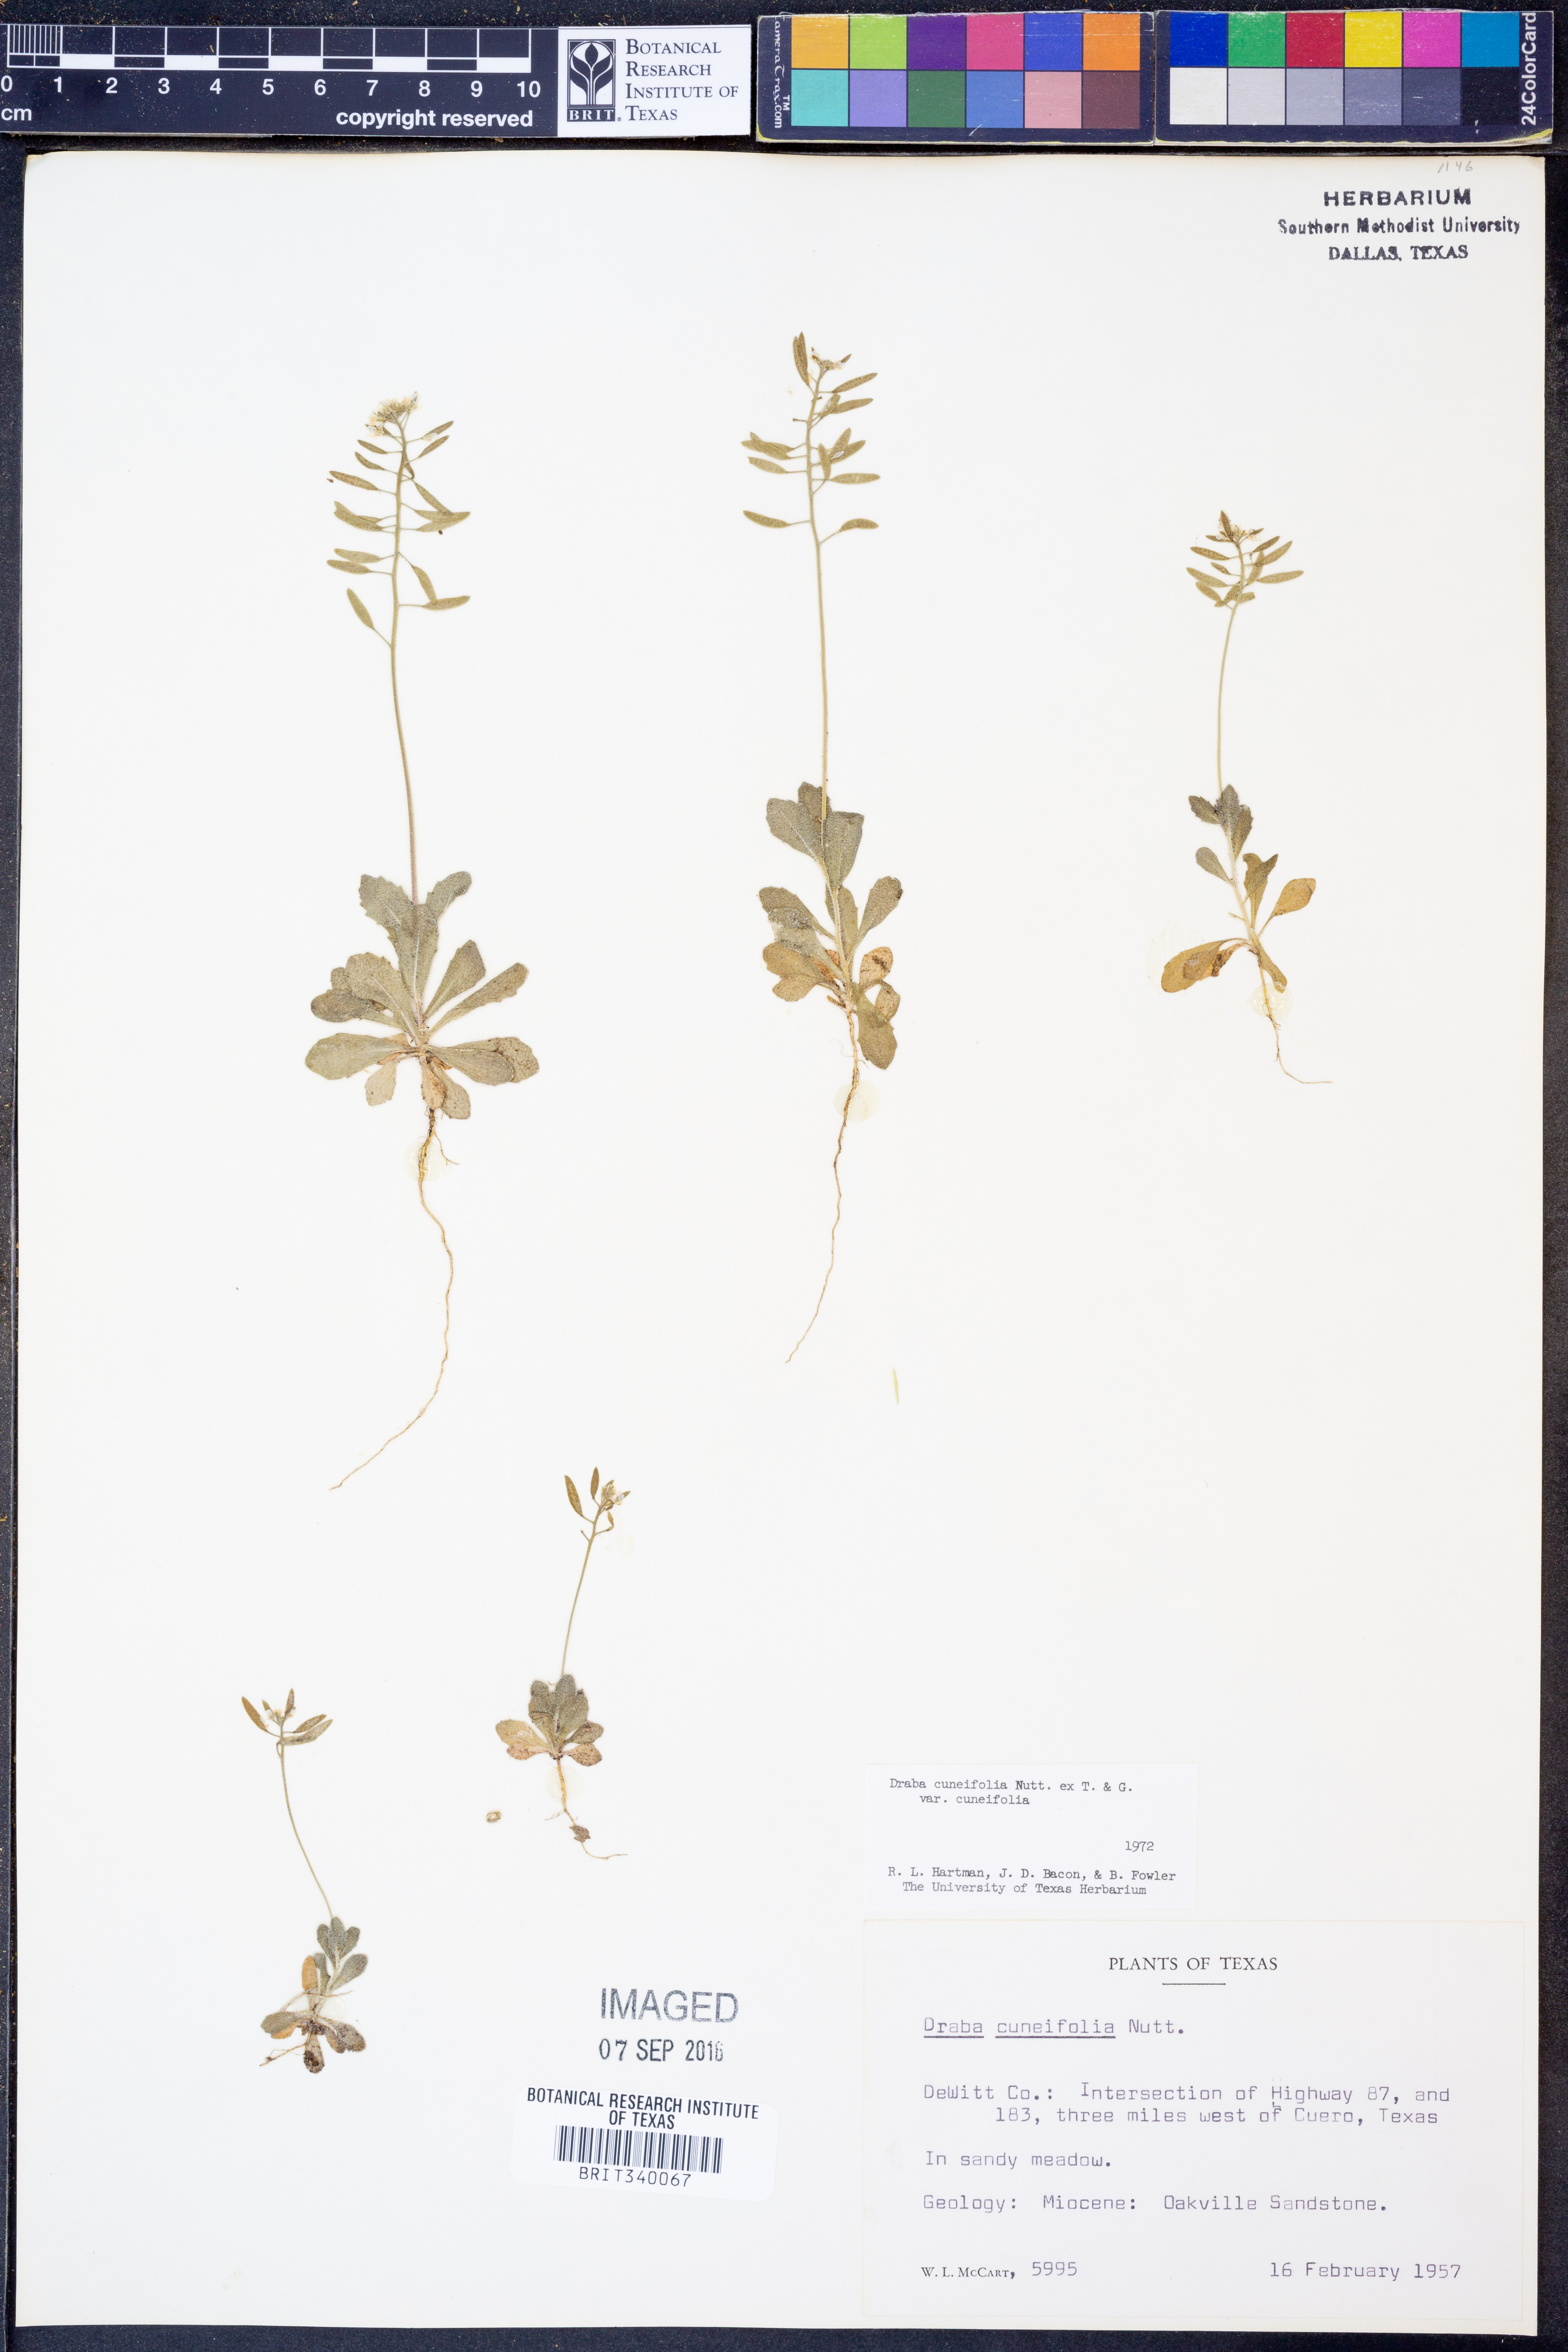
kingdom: Plantae
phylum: Tracheophyta
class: Magnoliopsida
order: Brassicales
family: Brassicaceae
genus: Tomostima
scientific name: Tomostima cuneifolia
